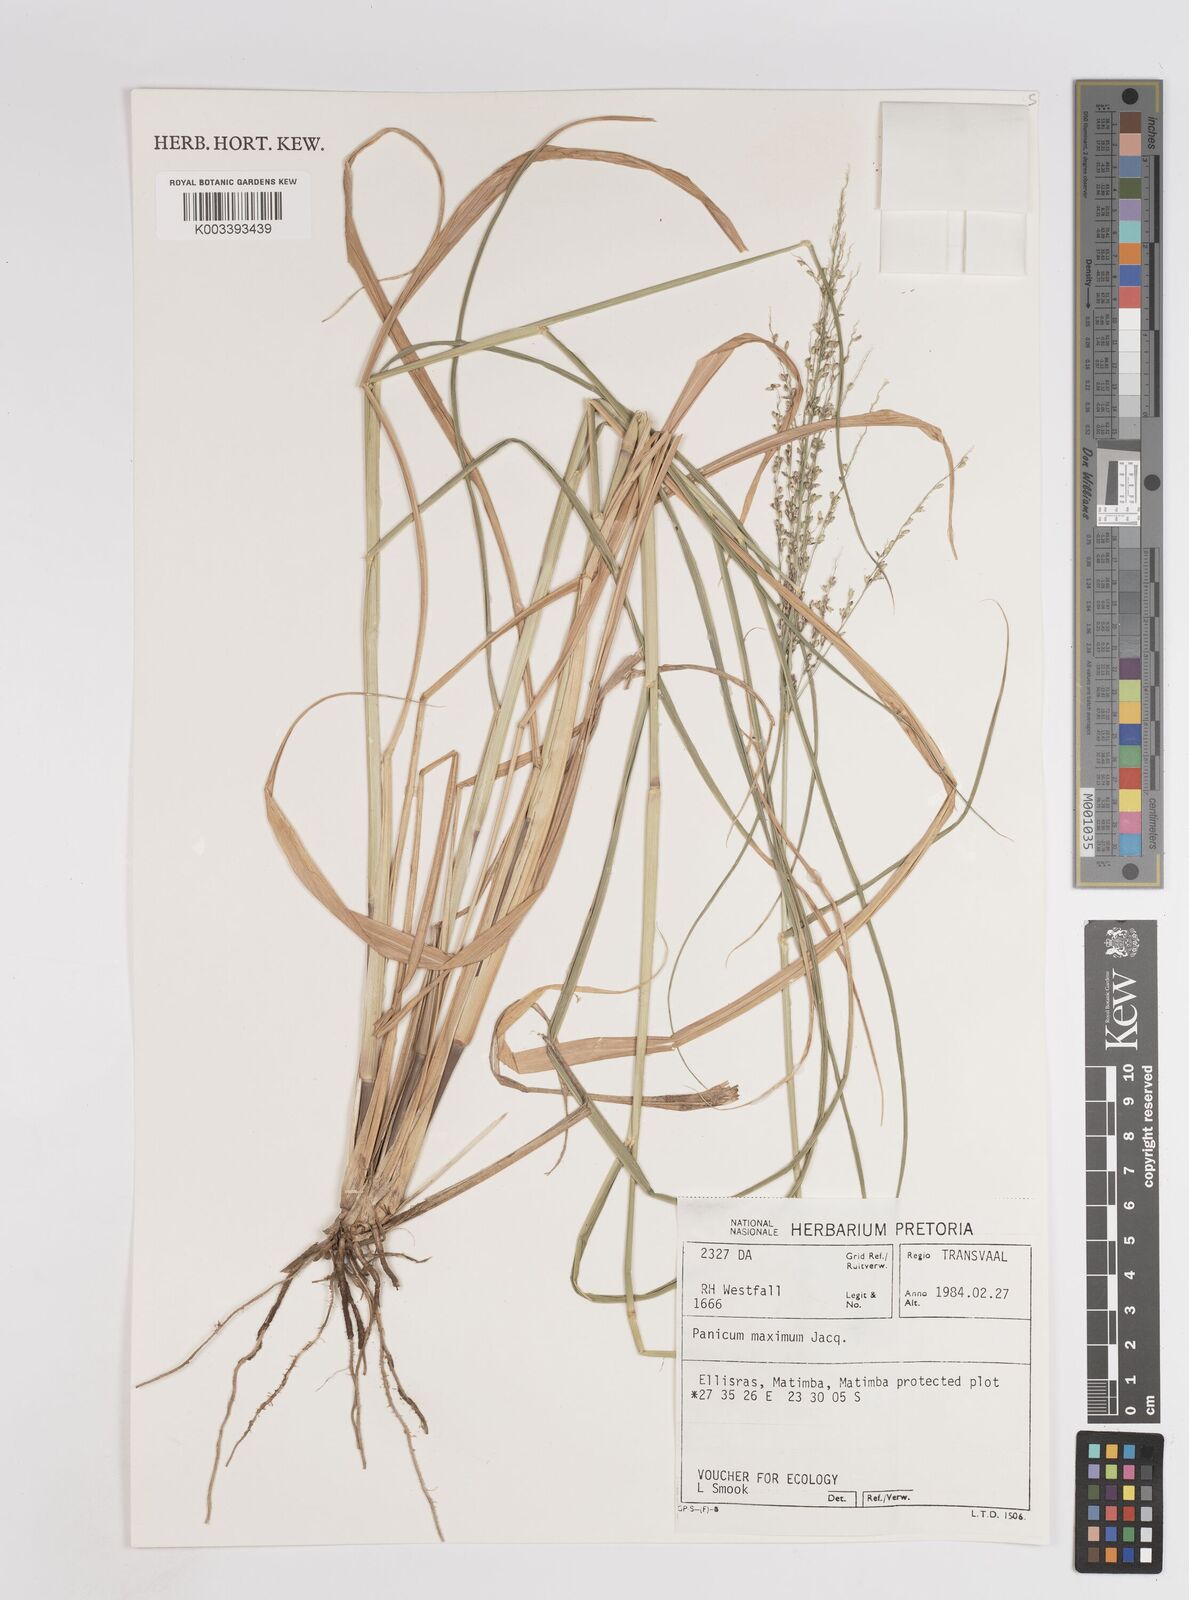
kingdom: Plantae
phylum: Tracheophyta
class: Liliopsida
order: Poales
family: Poaceae
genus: Megathyrsus
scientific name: Megathyrsus maximus
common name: Guineagrass
